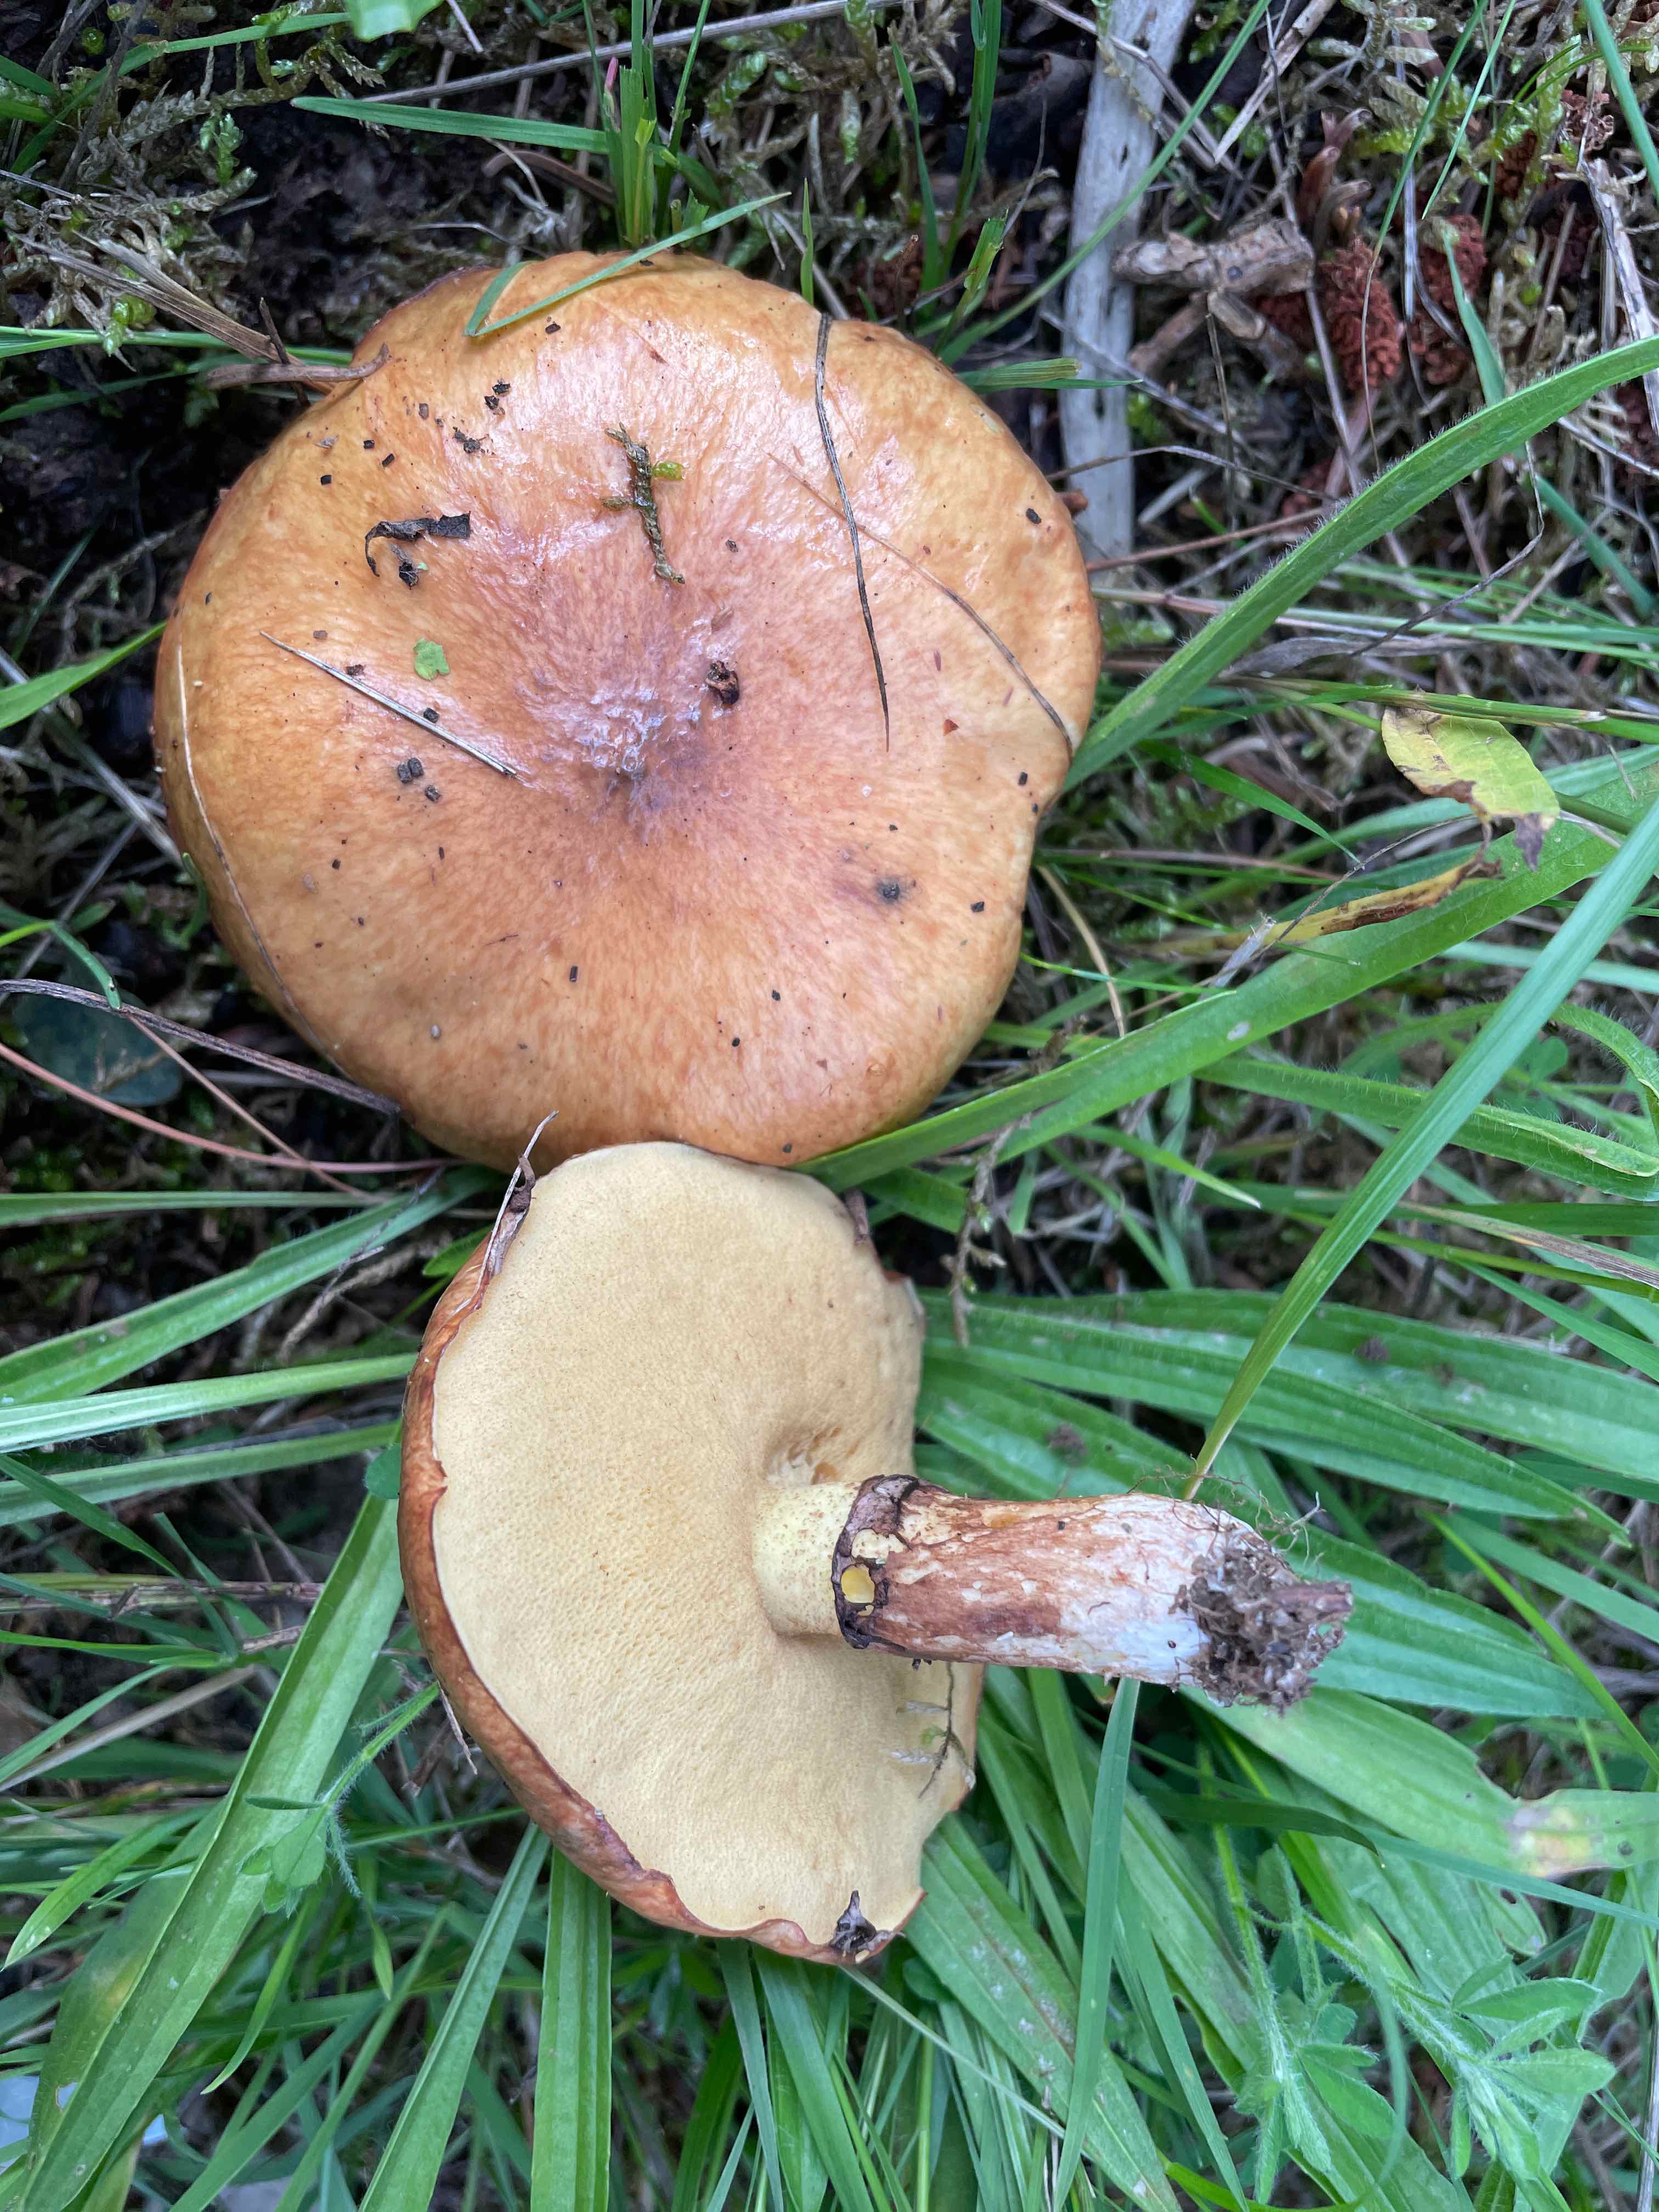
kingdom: Fungi
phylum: Basidiomycota
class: Agaricomycetes
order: Boletales
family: Suillaceae
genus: Suillus
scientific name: Suillus luteus
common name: brungul slimrørhat
